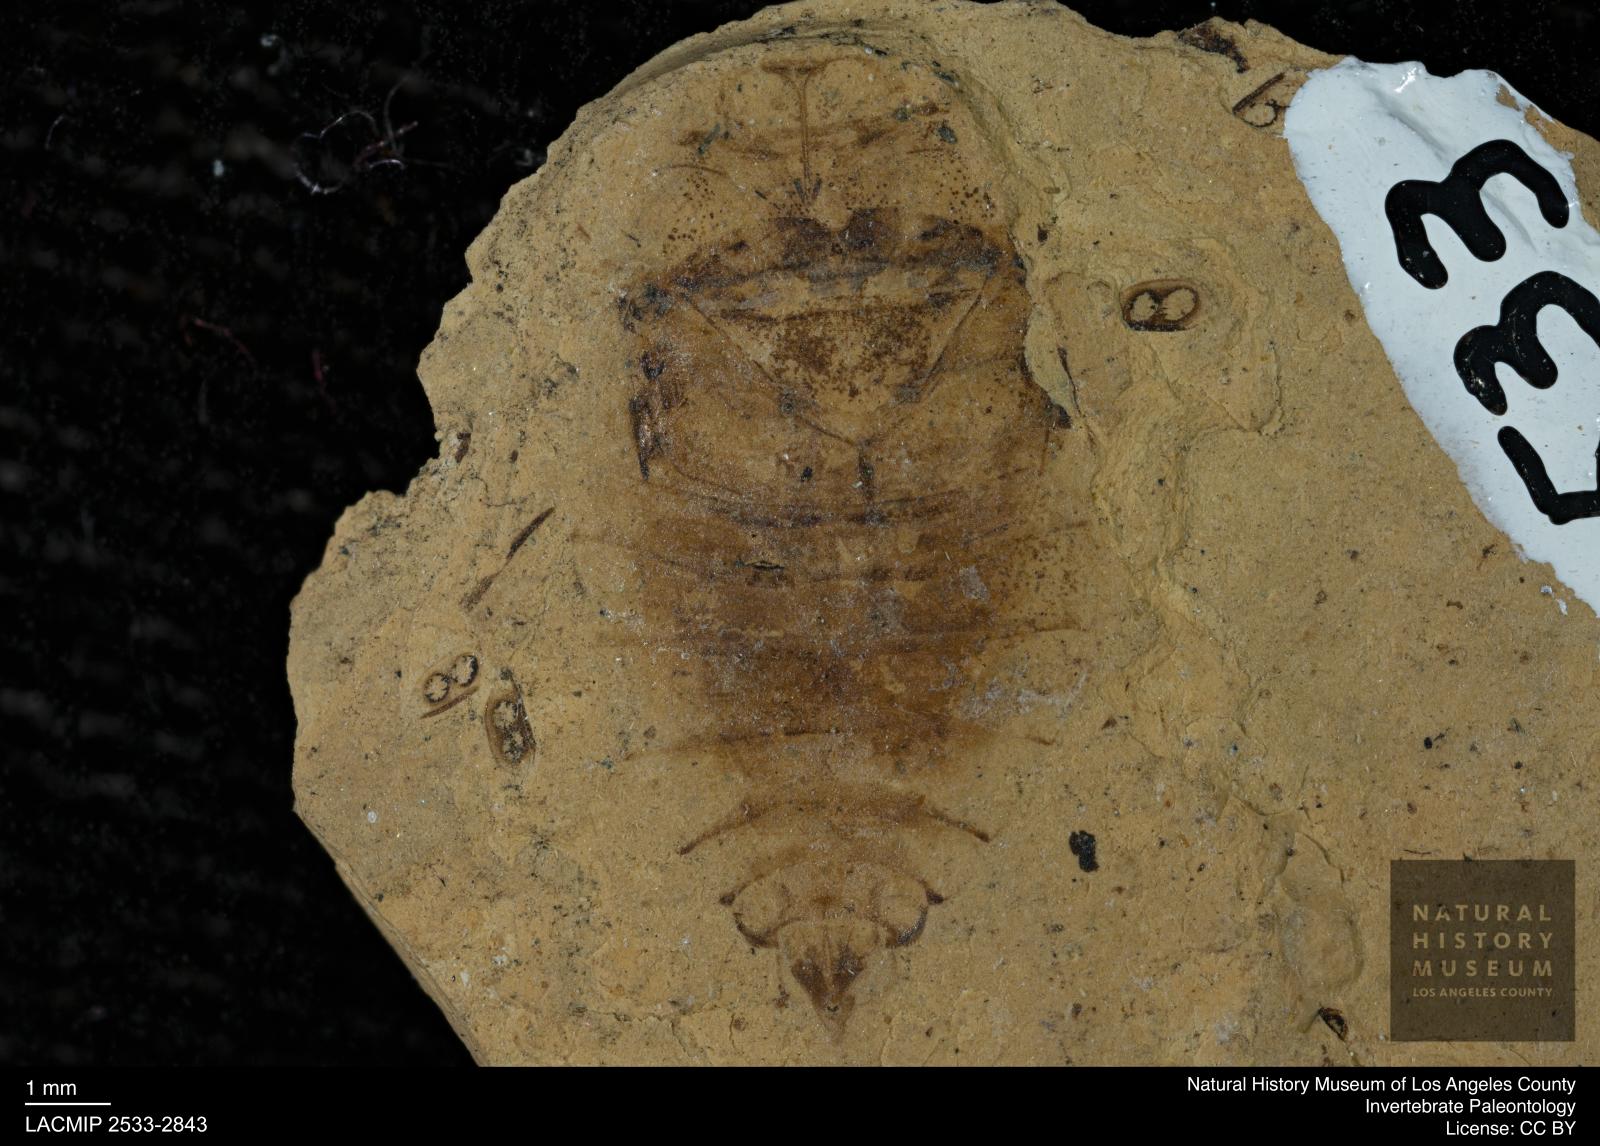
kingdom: Animalia
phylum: Arthropoda
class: Insecta
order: Hemiptera
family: Naucoridae
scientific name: Naucoridae
